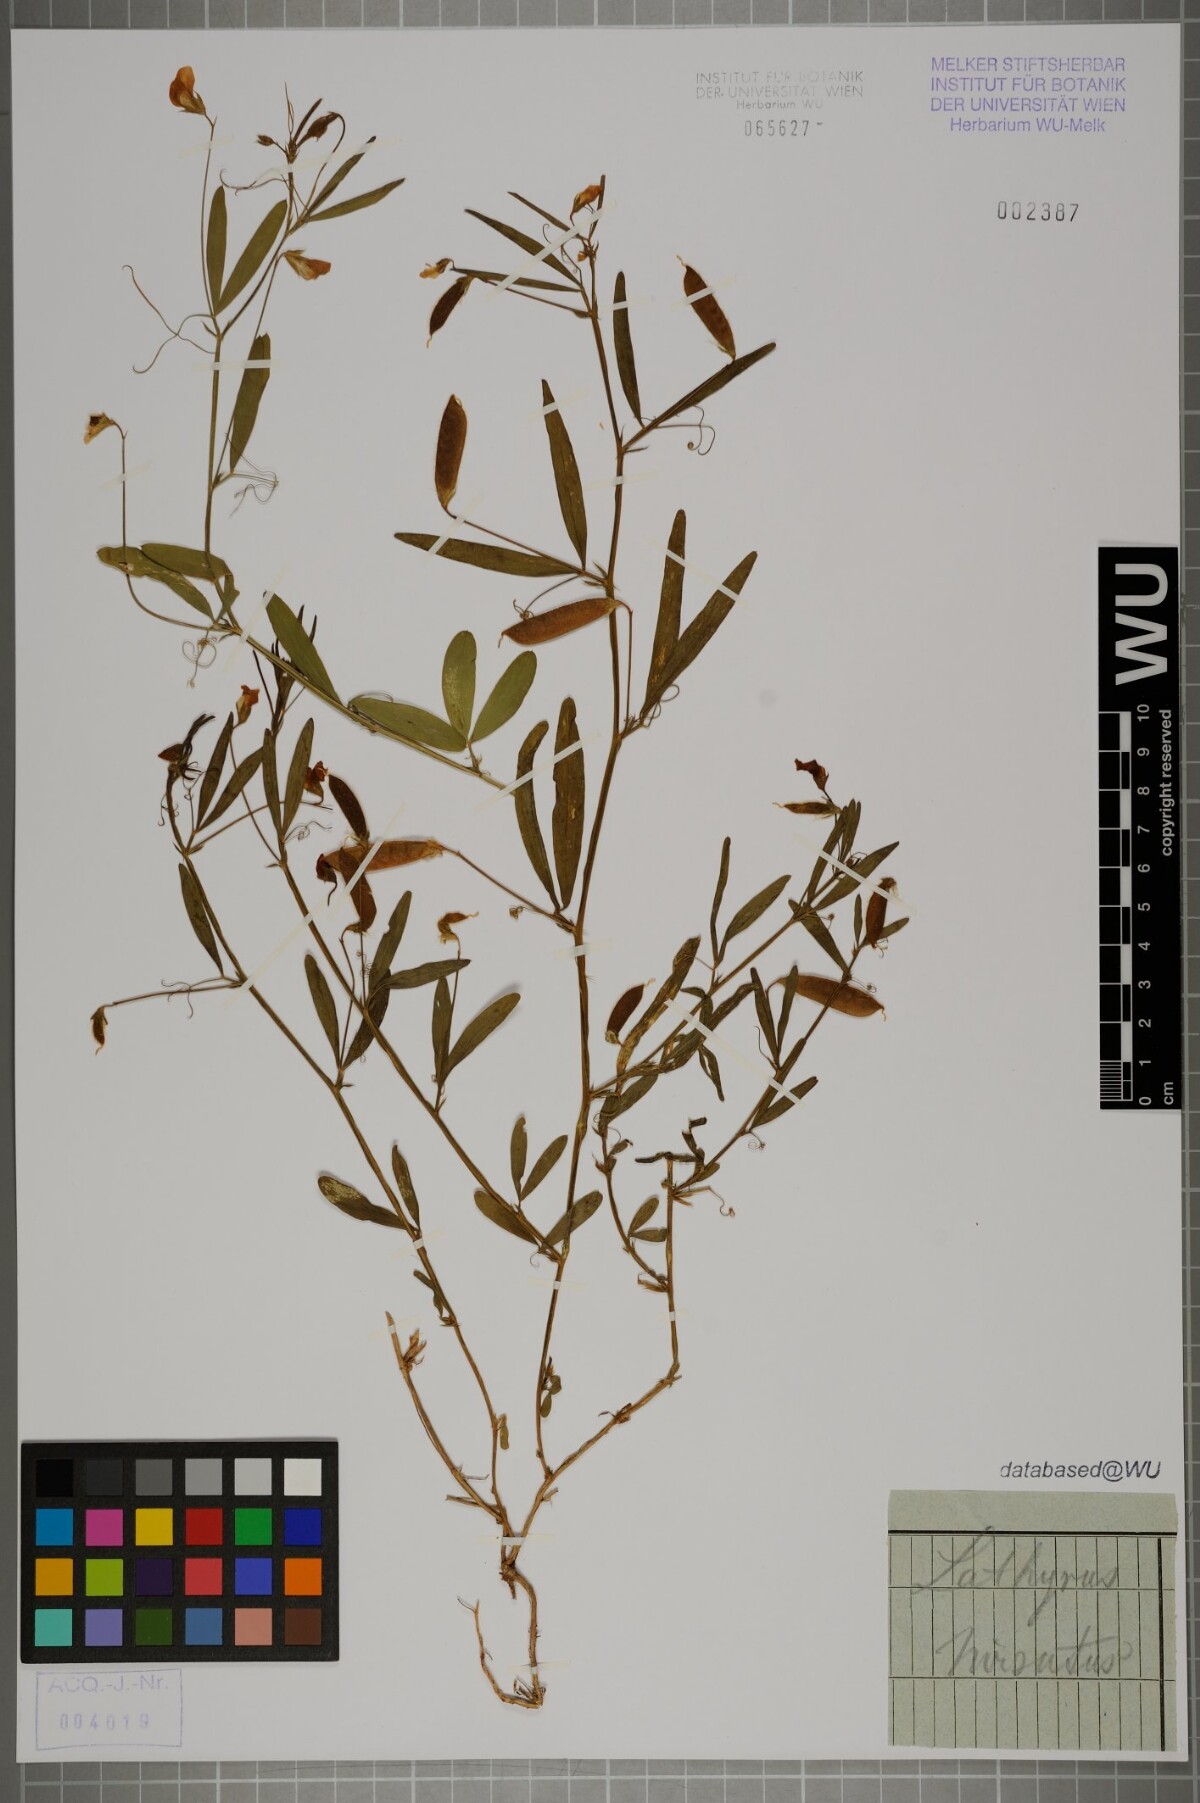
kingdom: Plantae
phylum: Tracheophyta
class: Magnoliopsida
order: Fabales
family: Fabaceae
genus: Lathyrus
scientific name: Lathyrus hirsutus
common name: Hairy vetchling
